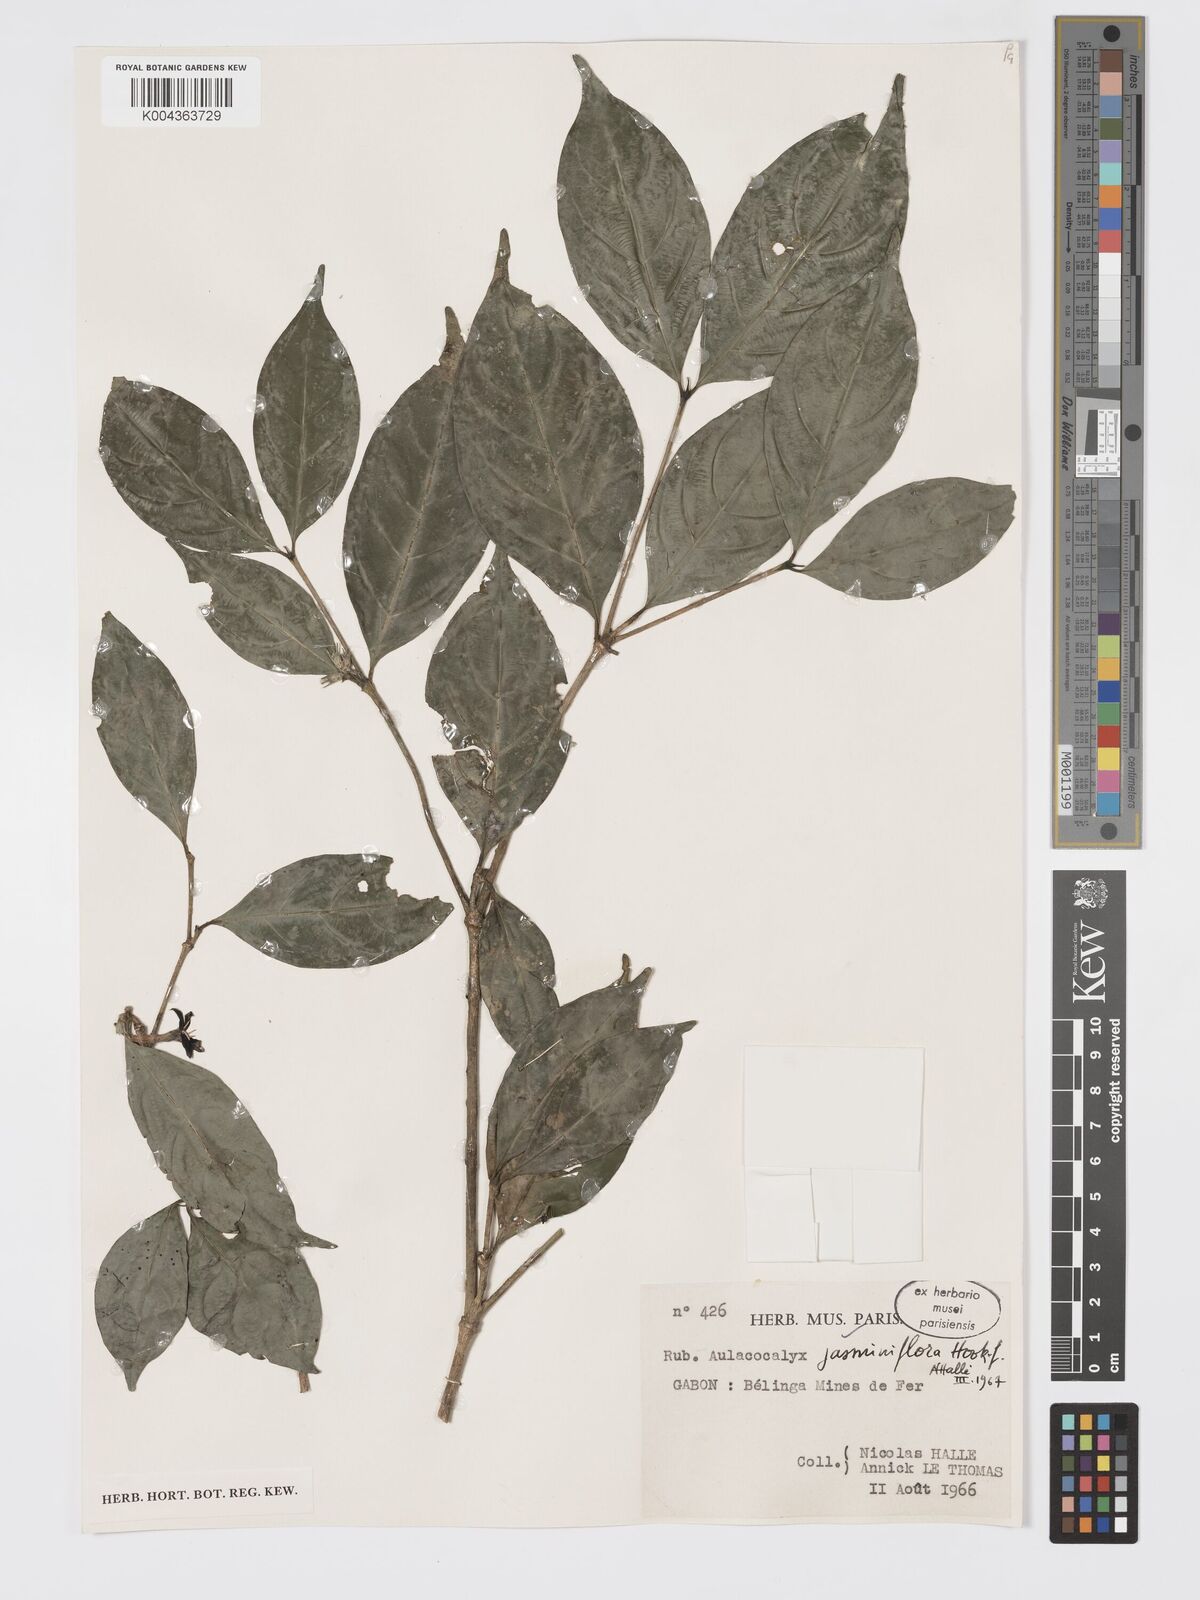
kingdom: Plantae
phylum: Tracheophyta
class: Magnoliopsida
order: Gentianales
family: Rubiaceae
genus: Aulacocalyx
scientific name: Aulacocalyx jasminiflora
